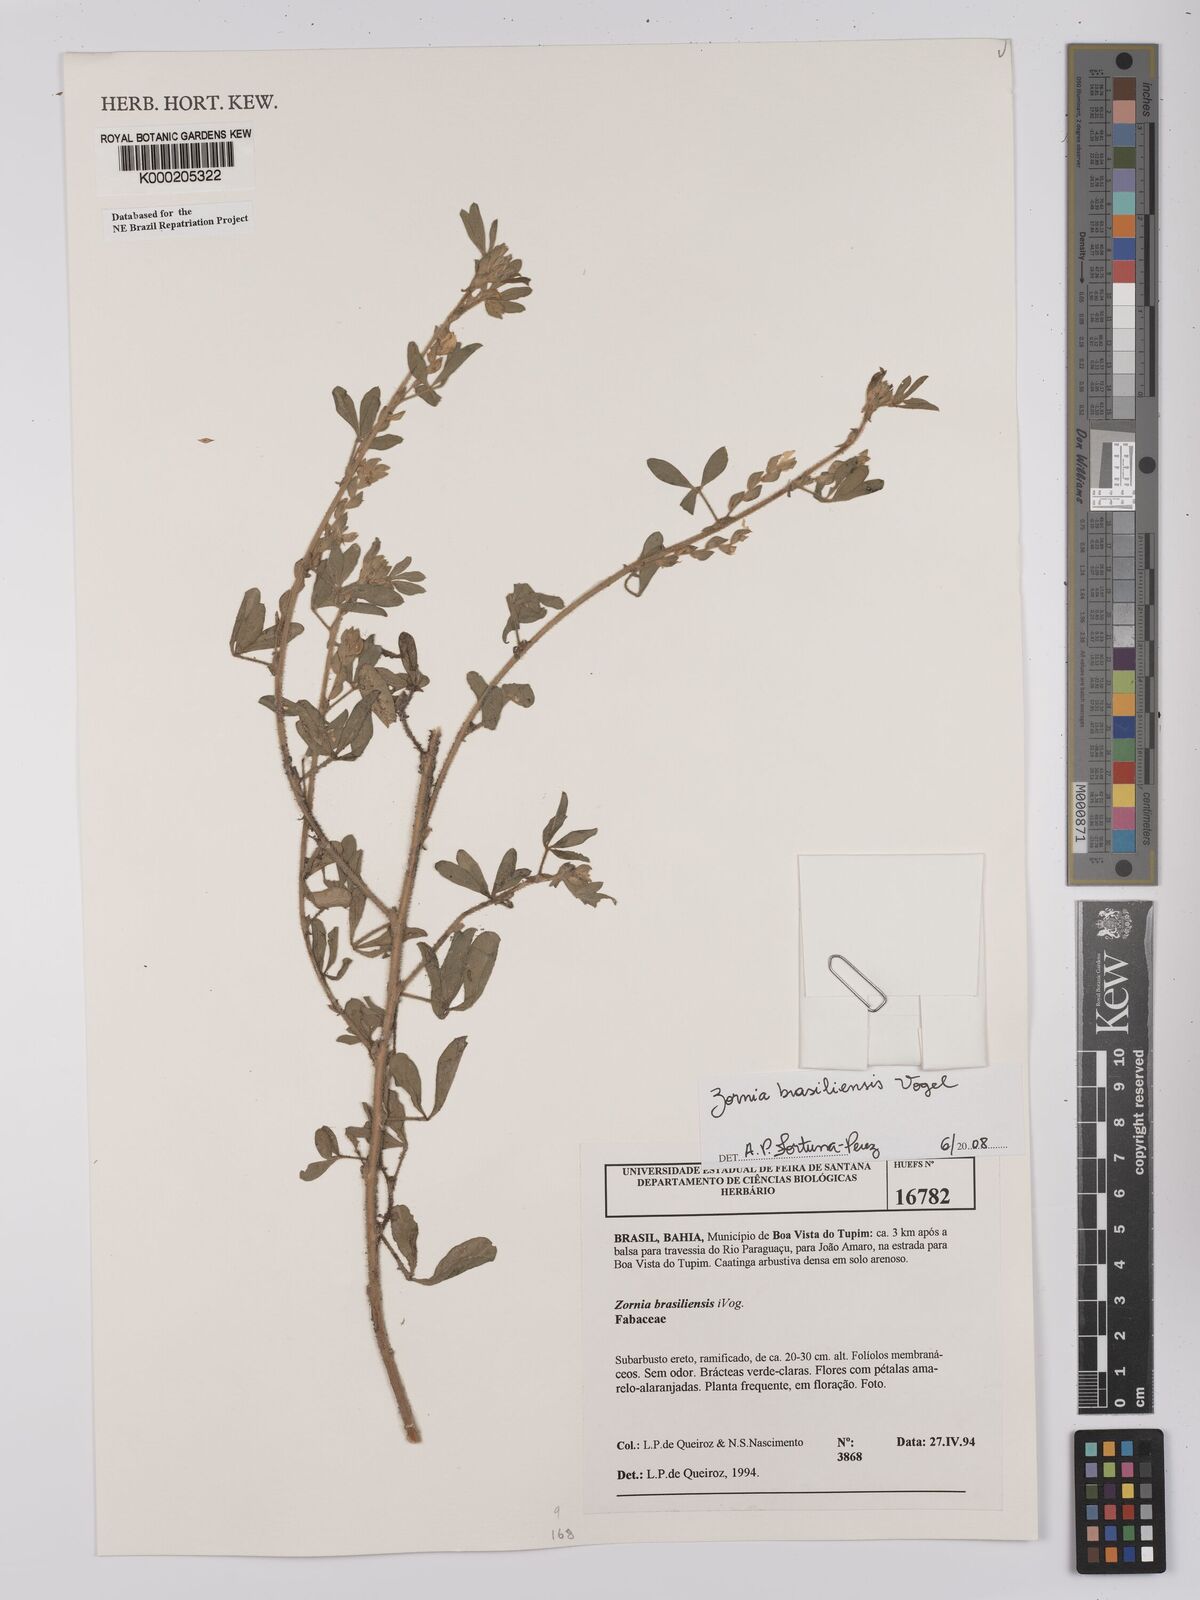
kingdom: Plantae
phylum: Tracheophyta
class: Magnoliopsida
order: Fabales
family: Fabaceae
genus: Zornia
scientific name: Zornia brasiliensis
